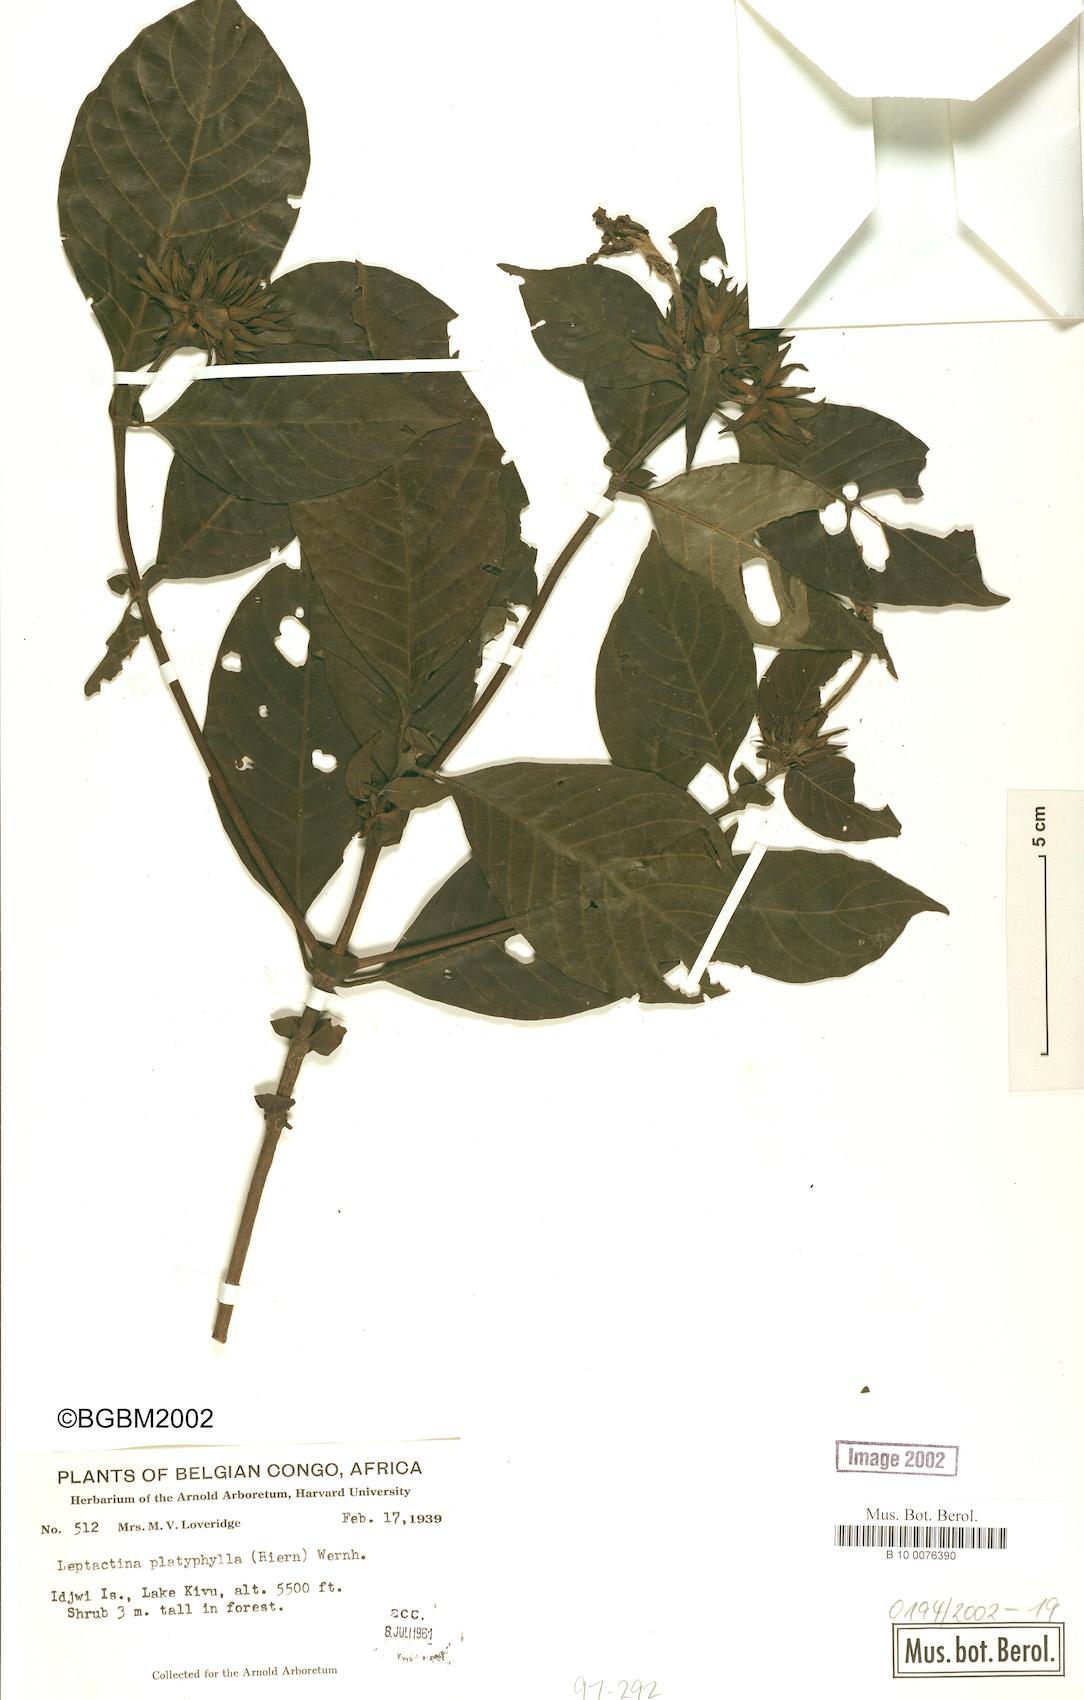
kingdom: Plantae
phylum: Tracheophyta
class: Magnoliopsida
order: Gentianales
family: Rubiaceae
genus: Leptactina
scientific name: Leptactina platyphylla
